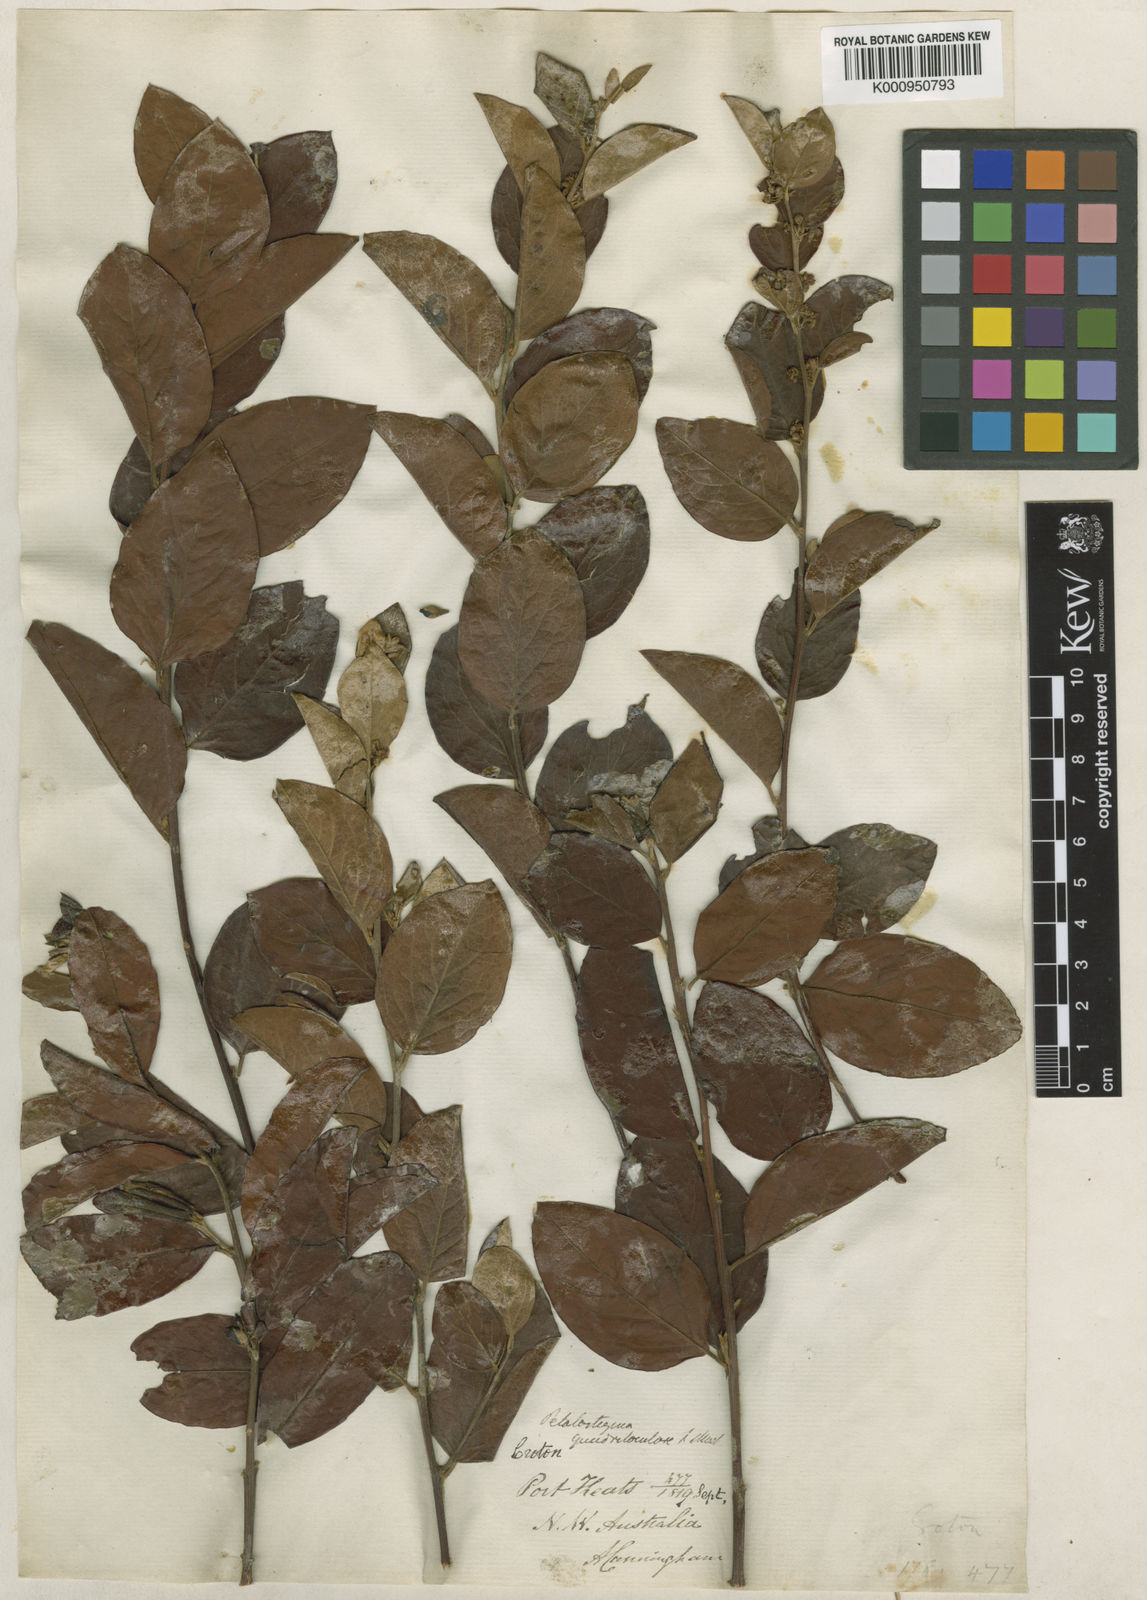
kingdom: Plantae
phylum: Tracheophyta
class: Magnoliopsida
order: Malpighiales
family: Picrodendraceae
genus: Petalostigma
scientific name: Petalostigma quadriloculare
